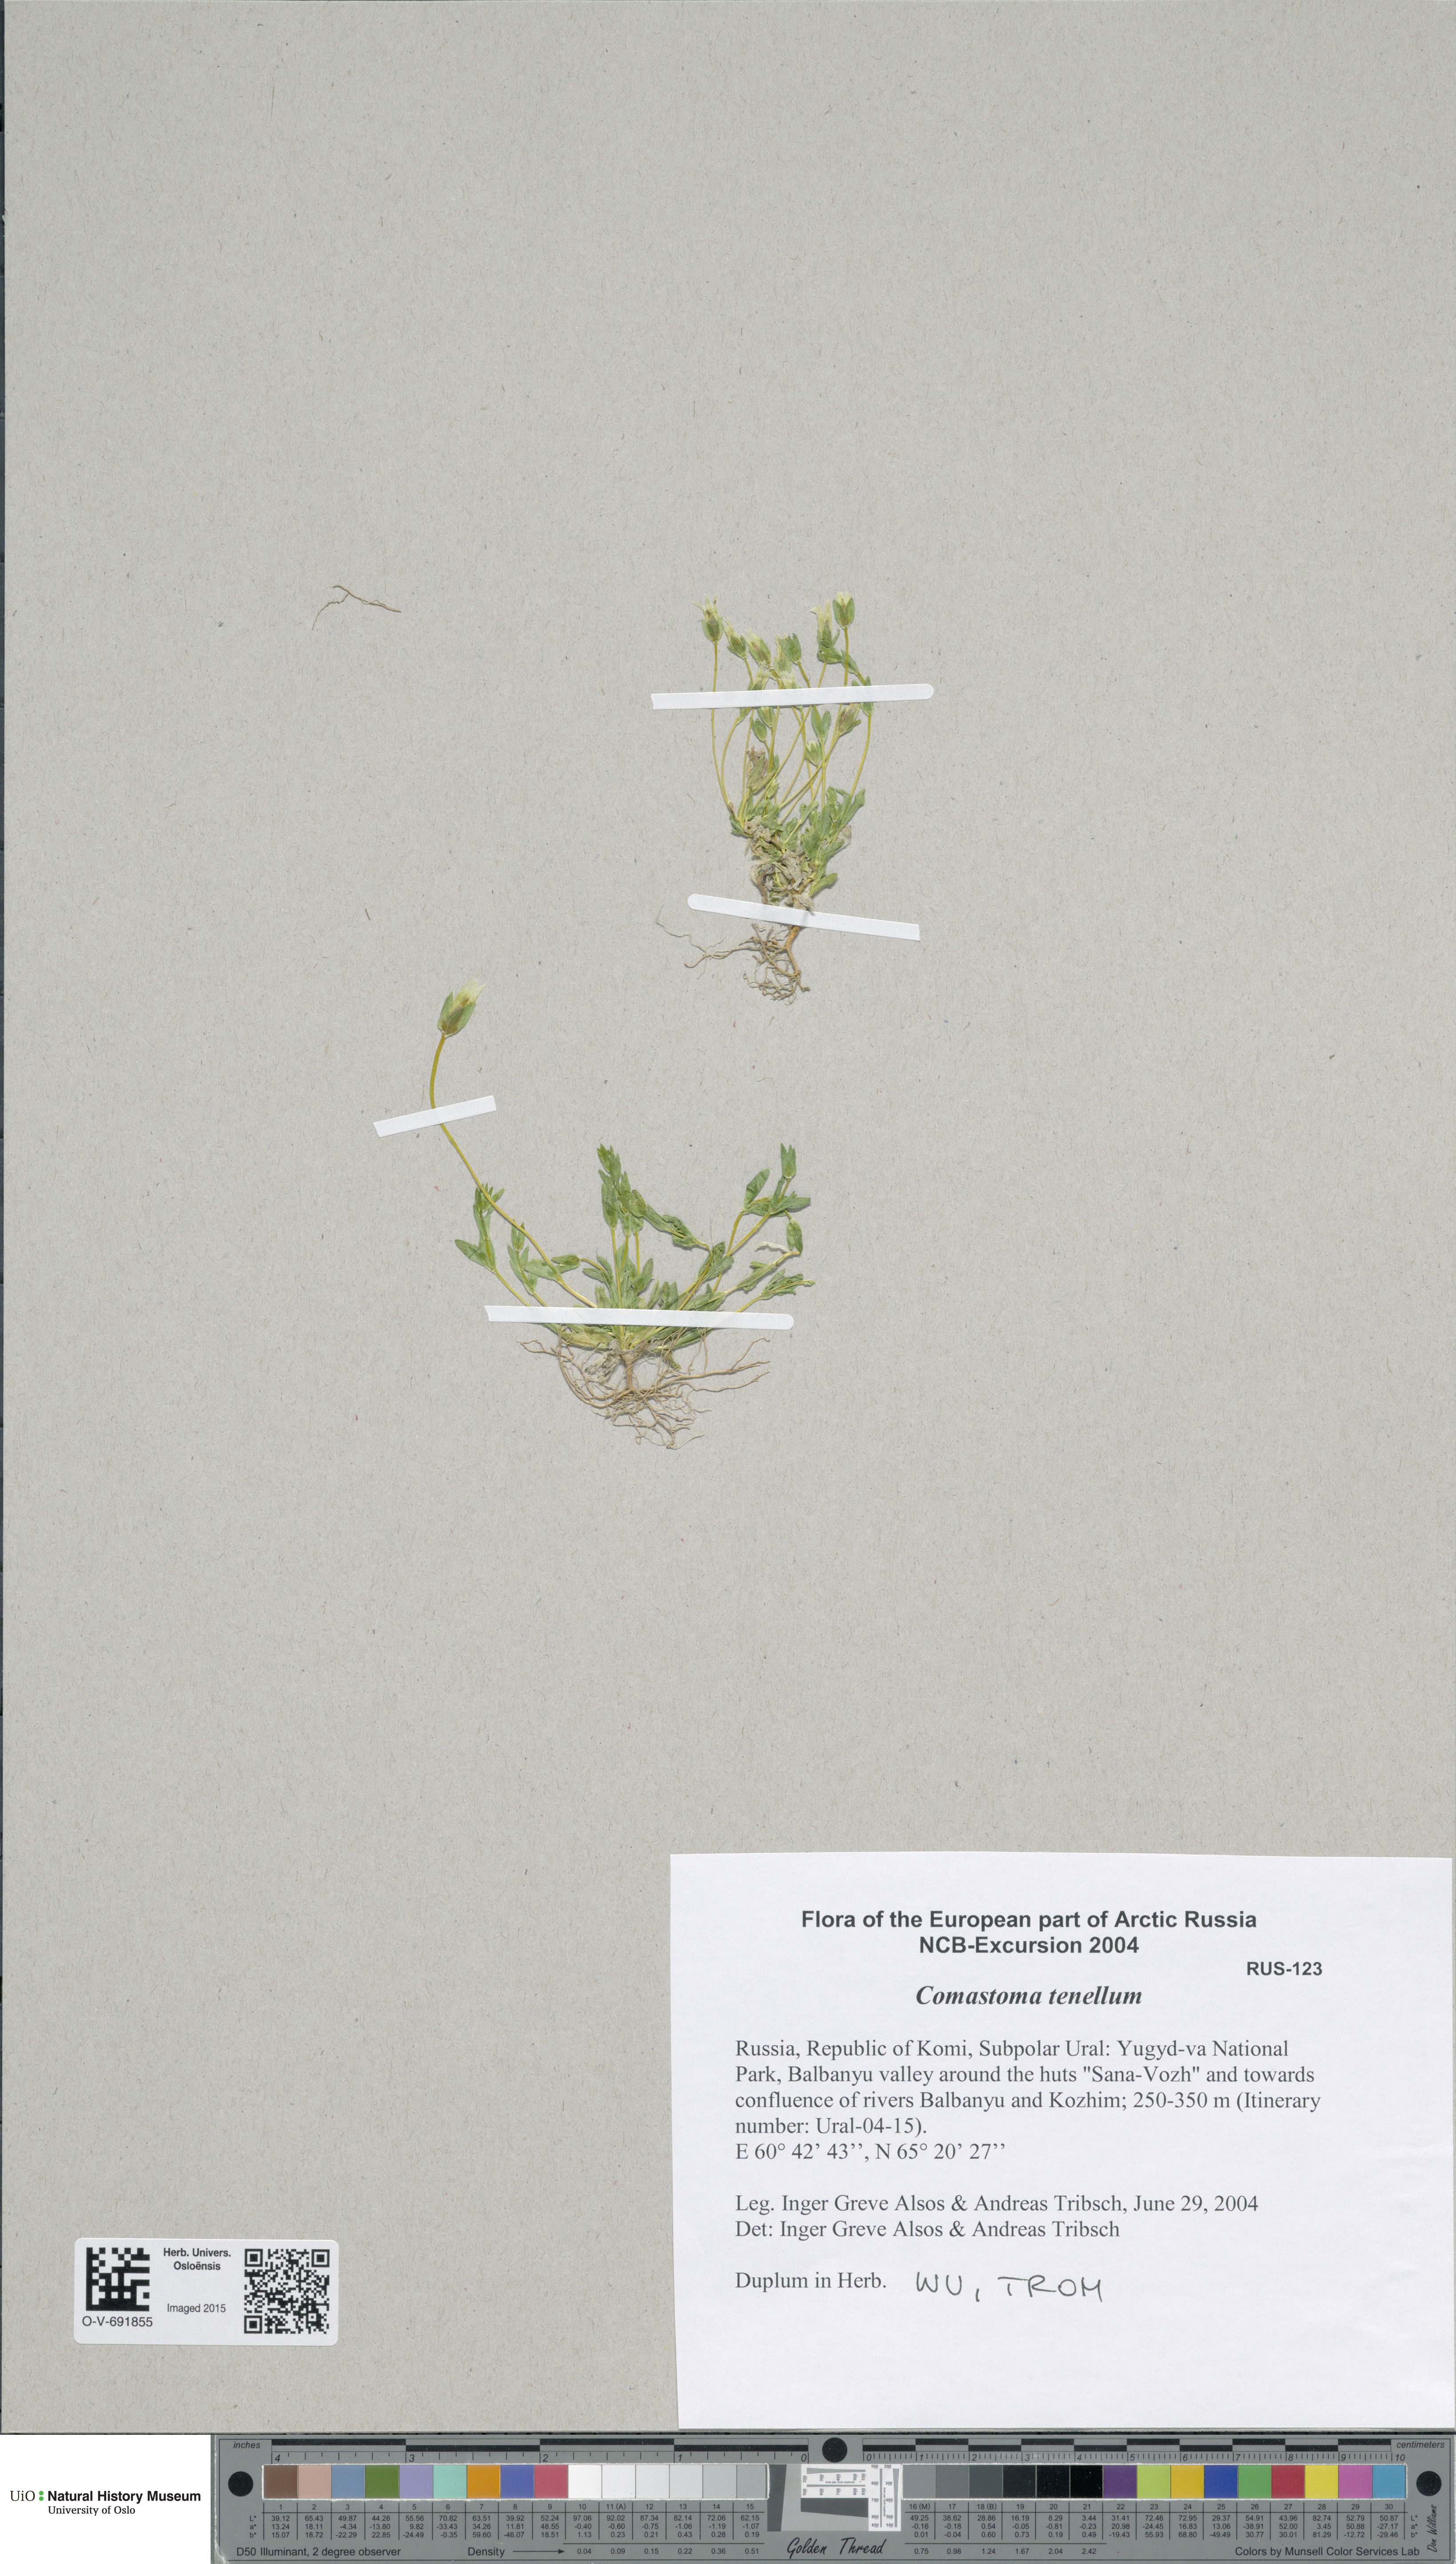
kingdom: Plantae
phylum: Tracheophyta
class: Magnoliopsida
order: Gentianales
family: Gentianaceae
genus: Comastoma
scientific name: Comastoma tenellum
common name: Dane's dwarf gentian
